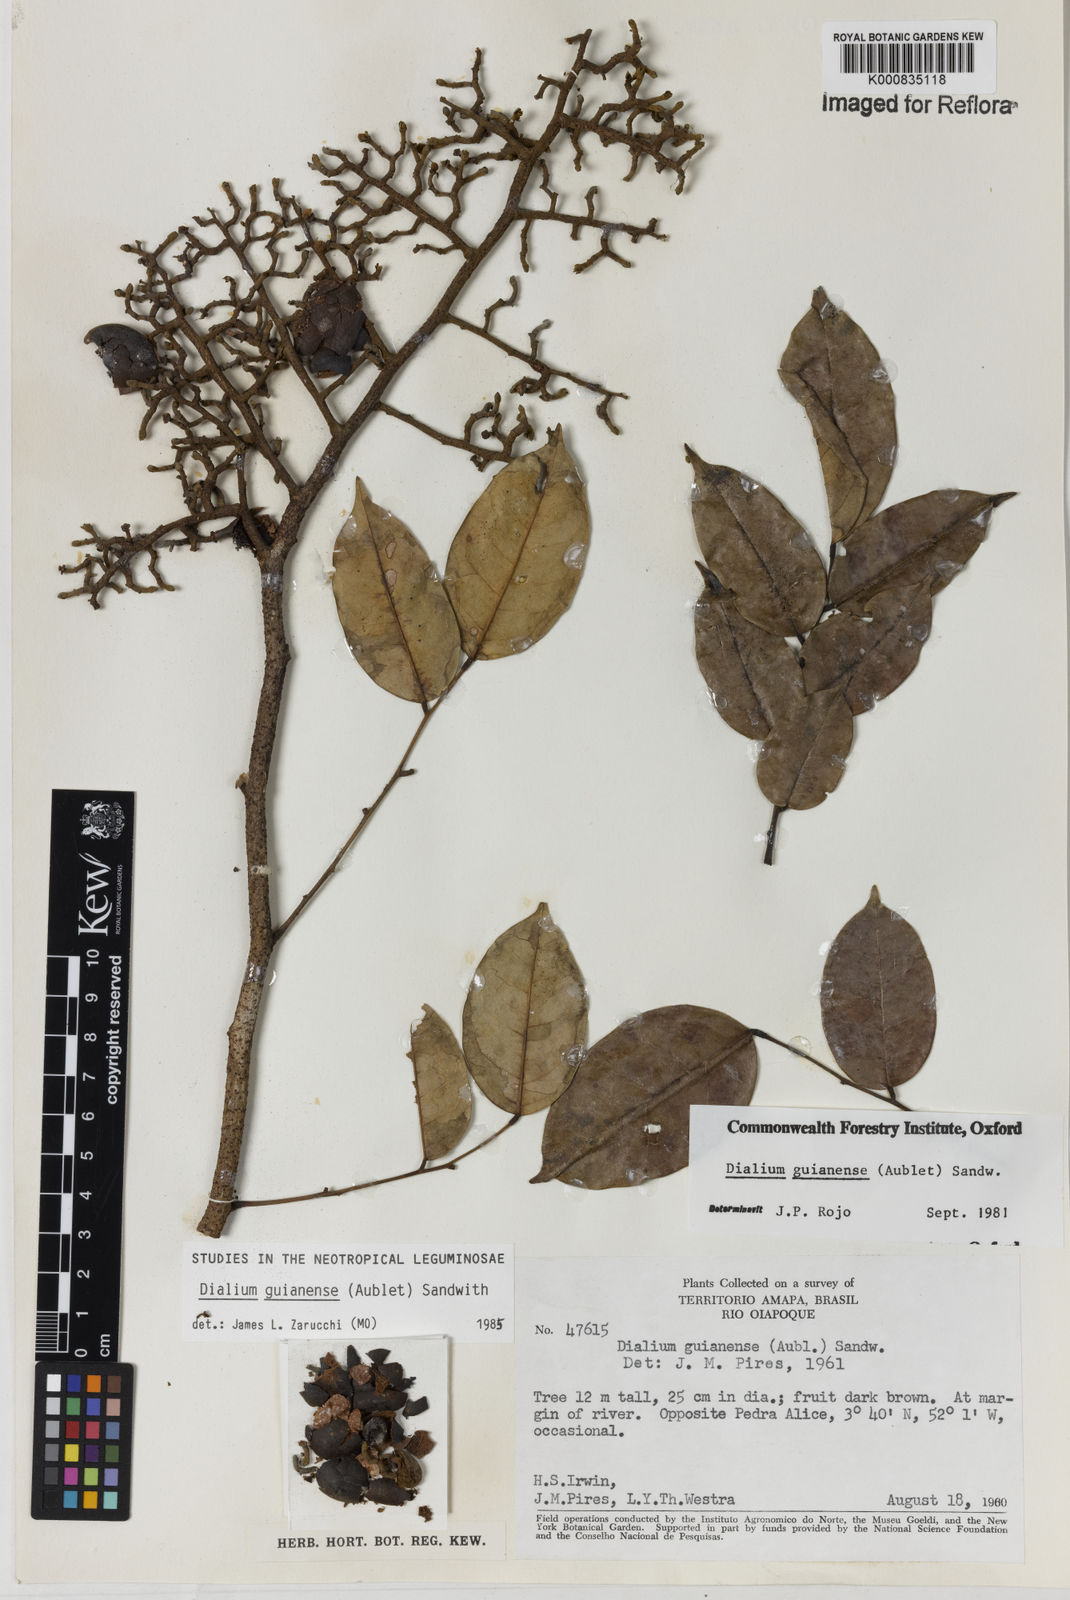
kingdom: Plantae
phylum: Tracheophyta
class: Magnoliopsida
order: Fabales
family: Fabaceae
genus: Dialium
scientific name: Dialium guianense
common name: Ironwood
